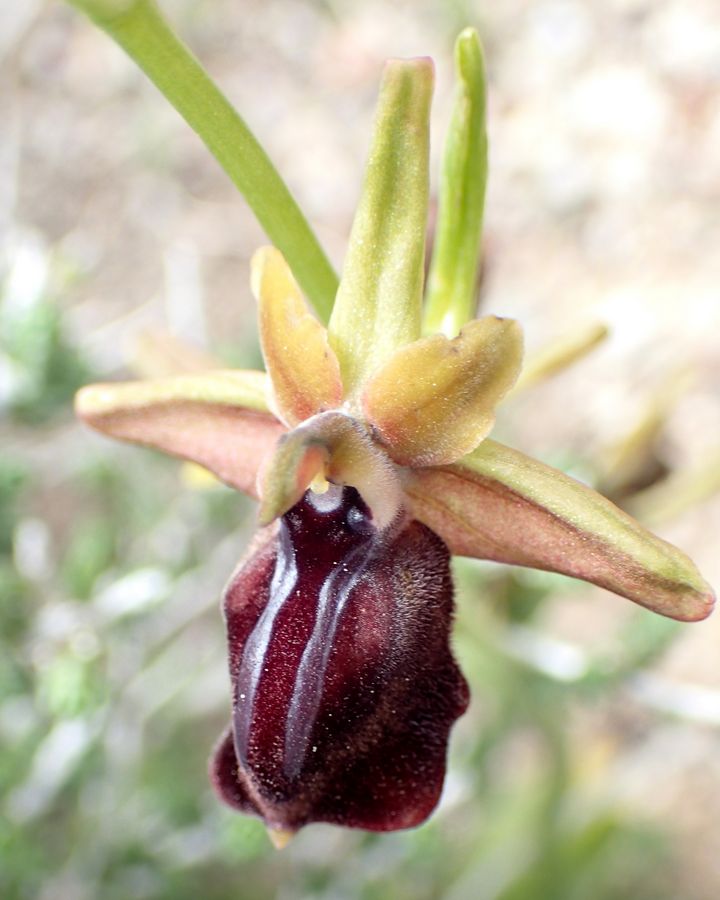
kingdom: Plantae
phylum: Tracheophyta
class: Liliopsida
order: Asparagales
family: Orchidaceae
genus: Ophrys
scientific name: Ophrys sphegodes
